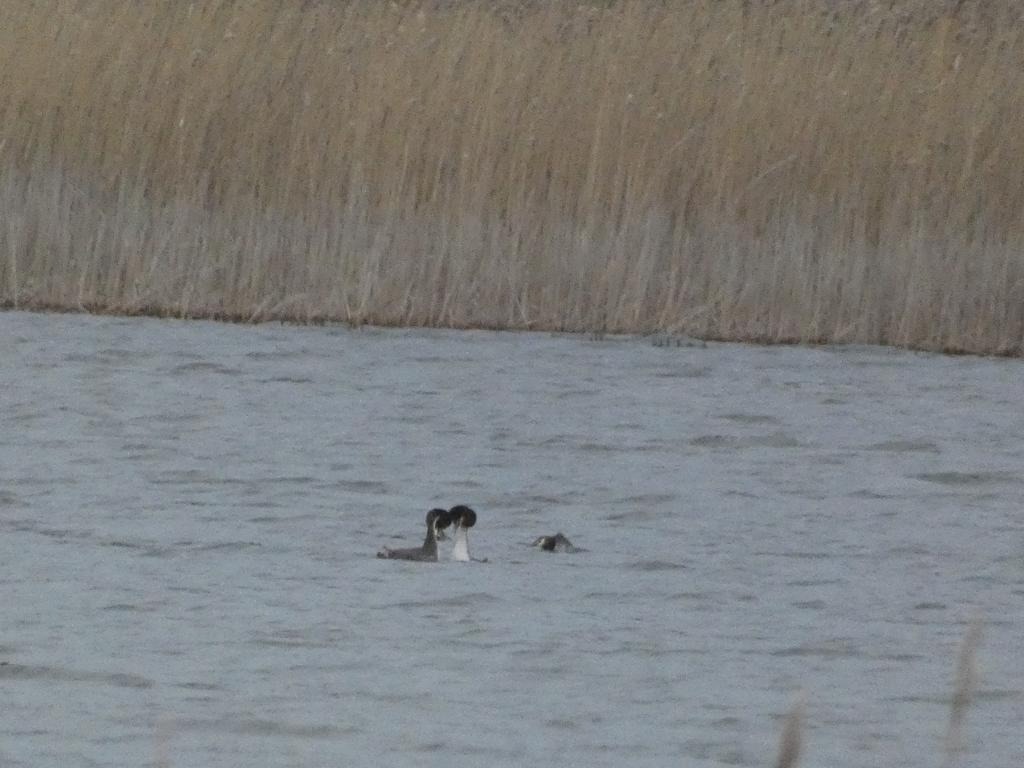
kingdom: Animalia
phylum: Chordata
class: Aves
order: Podicipediformes
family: Podicipedidae
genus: Podiceps
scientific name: Podiceps cristatus
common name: Toppet lappedykker
